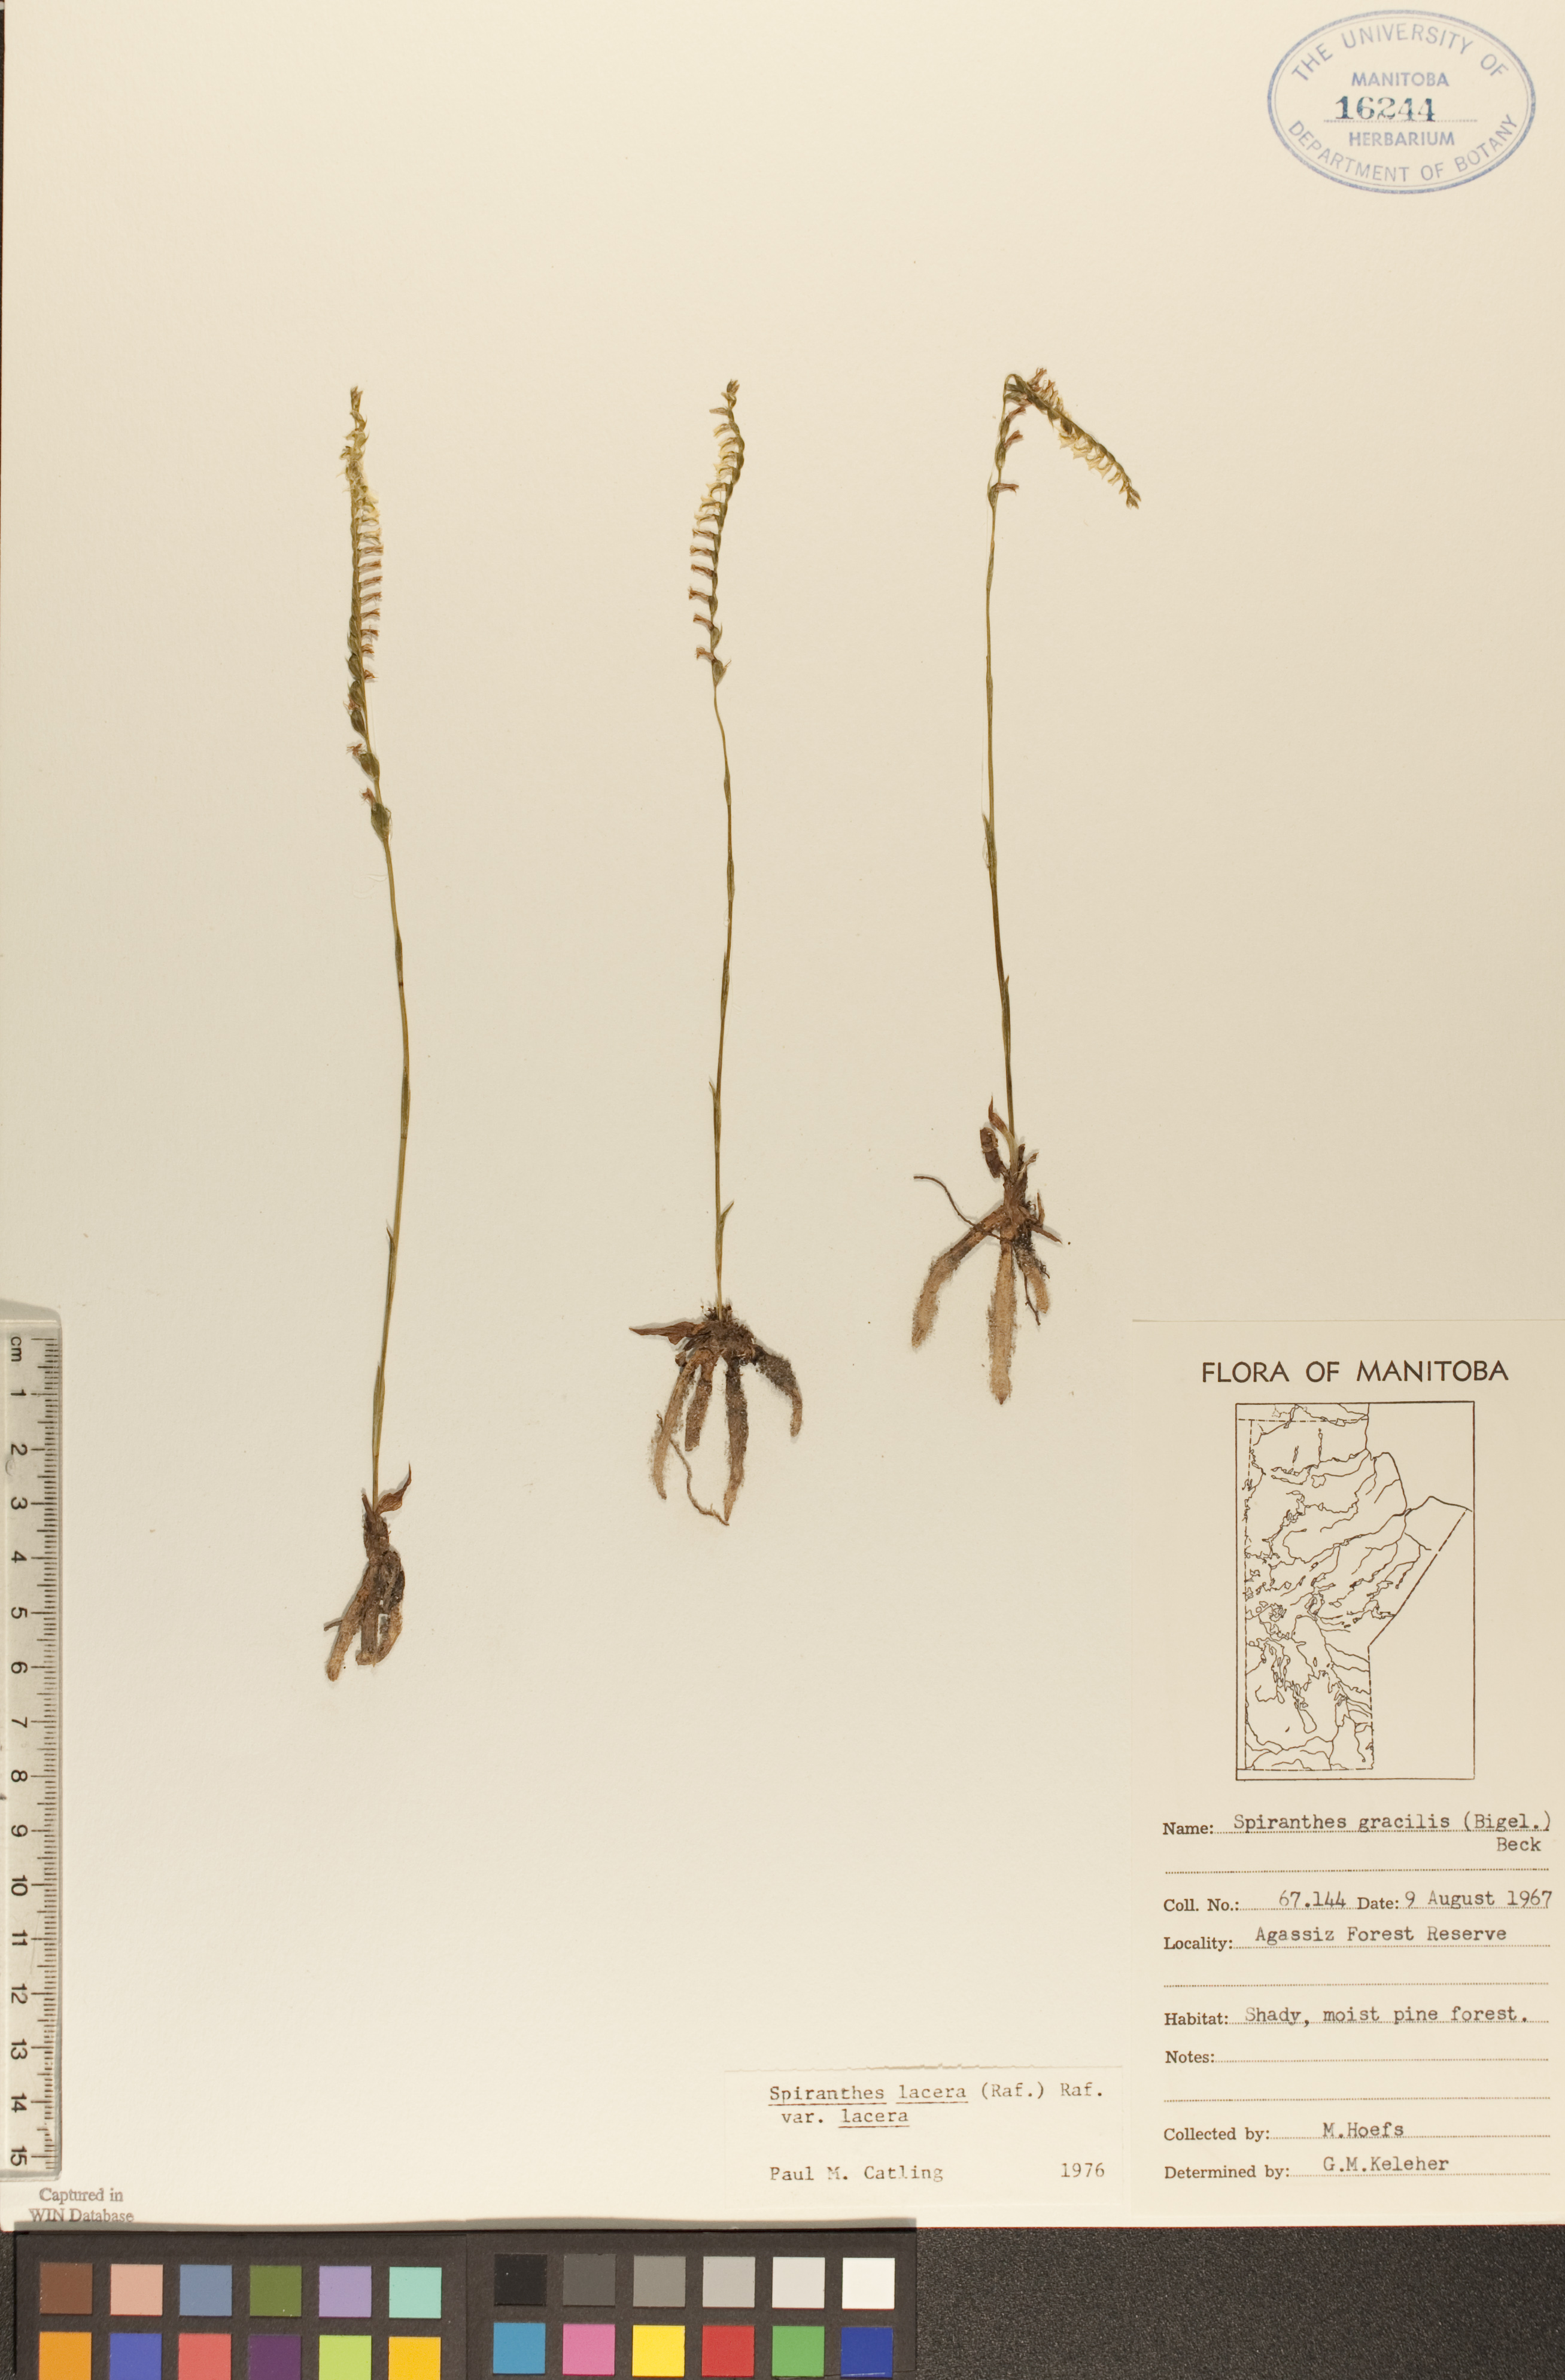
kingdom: Plantae
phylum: Tracheophyta
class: Liliopsida
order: Asparagales
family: Orchidaceae
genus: Spiranthes
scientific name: Spiranthes lacera
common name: Northern slender ladies'-tresses
